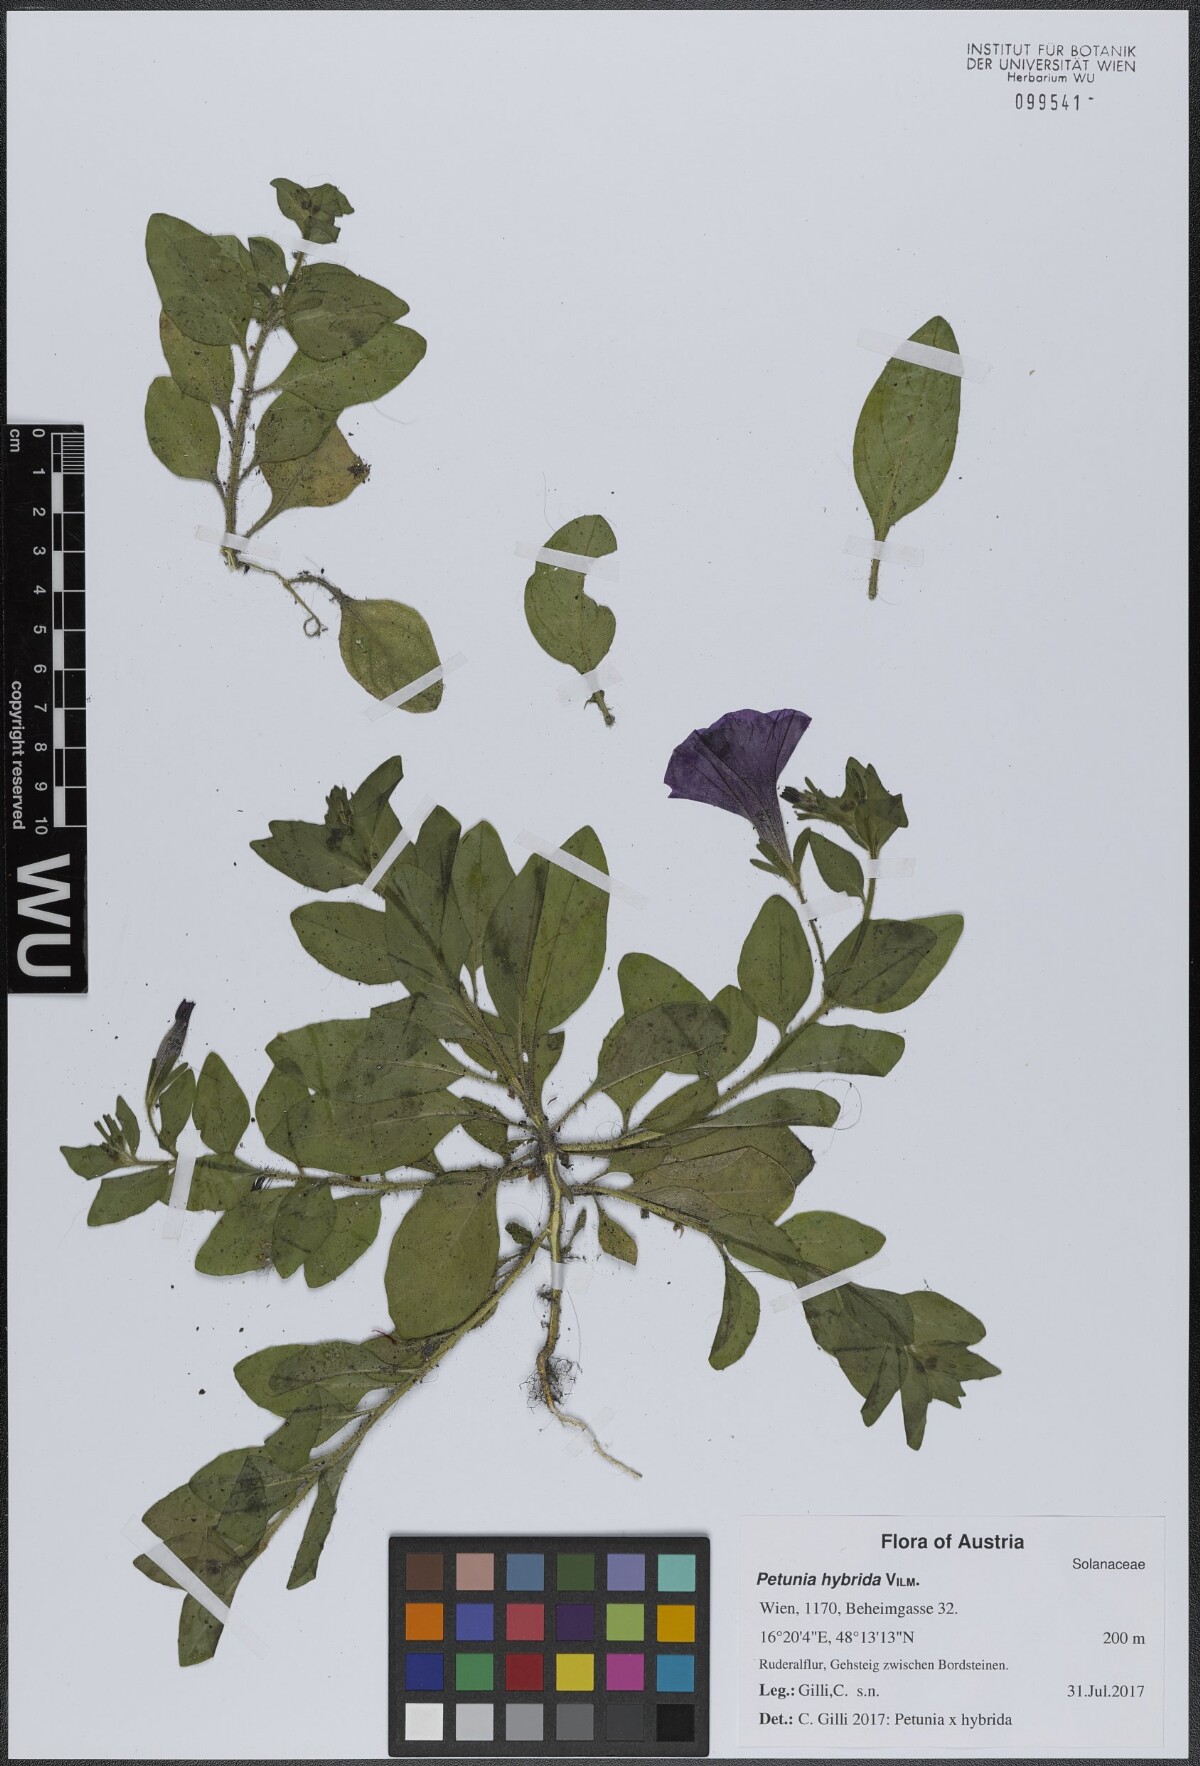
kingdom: Plantae
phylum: Tracheophyta
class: Magnoliopsida
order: Solanales
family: Solanaceae
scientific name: Solanaceae
